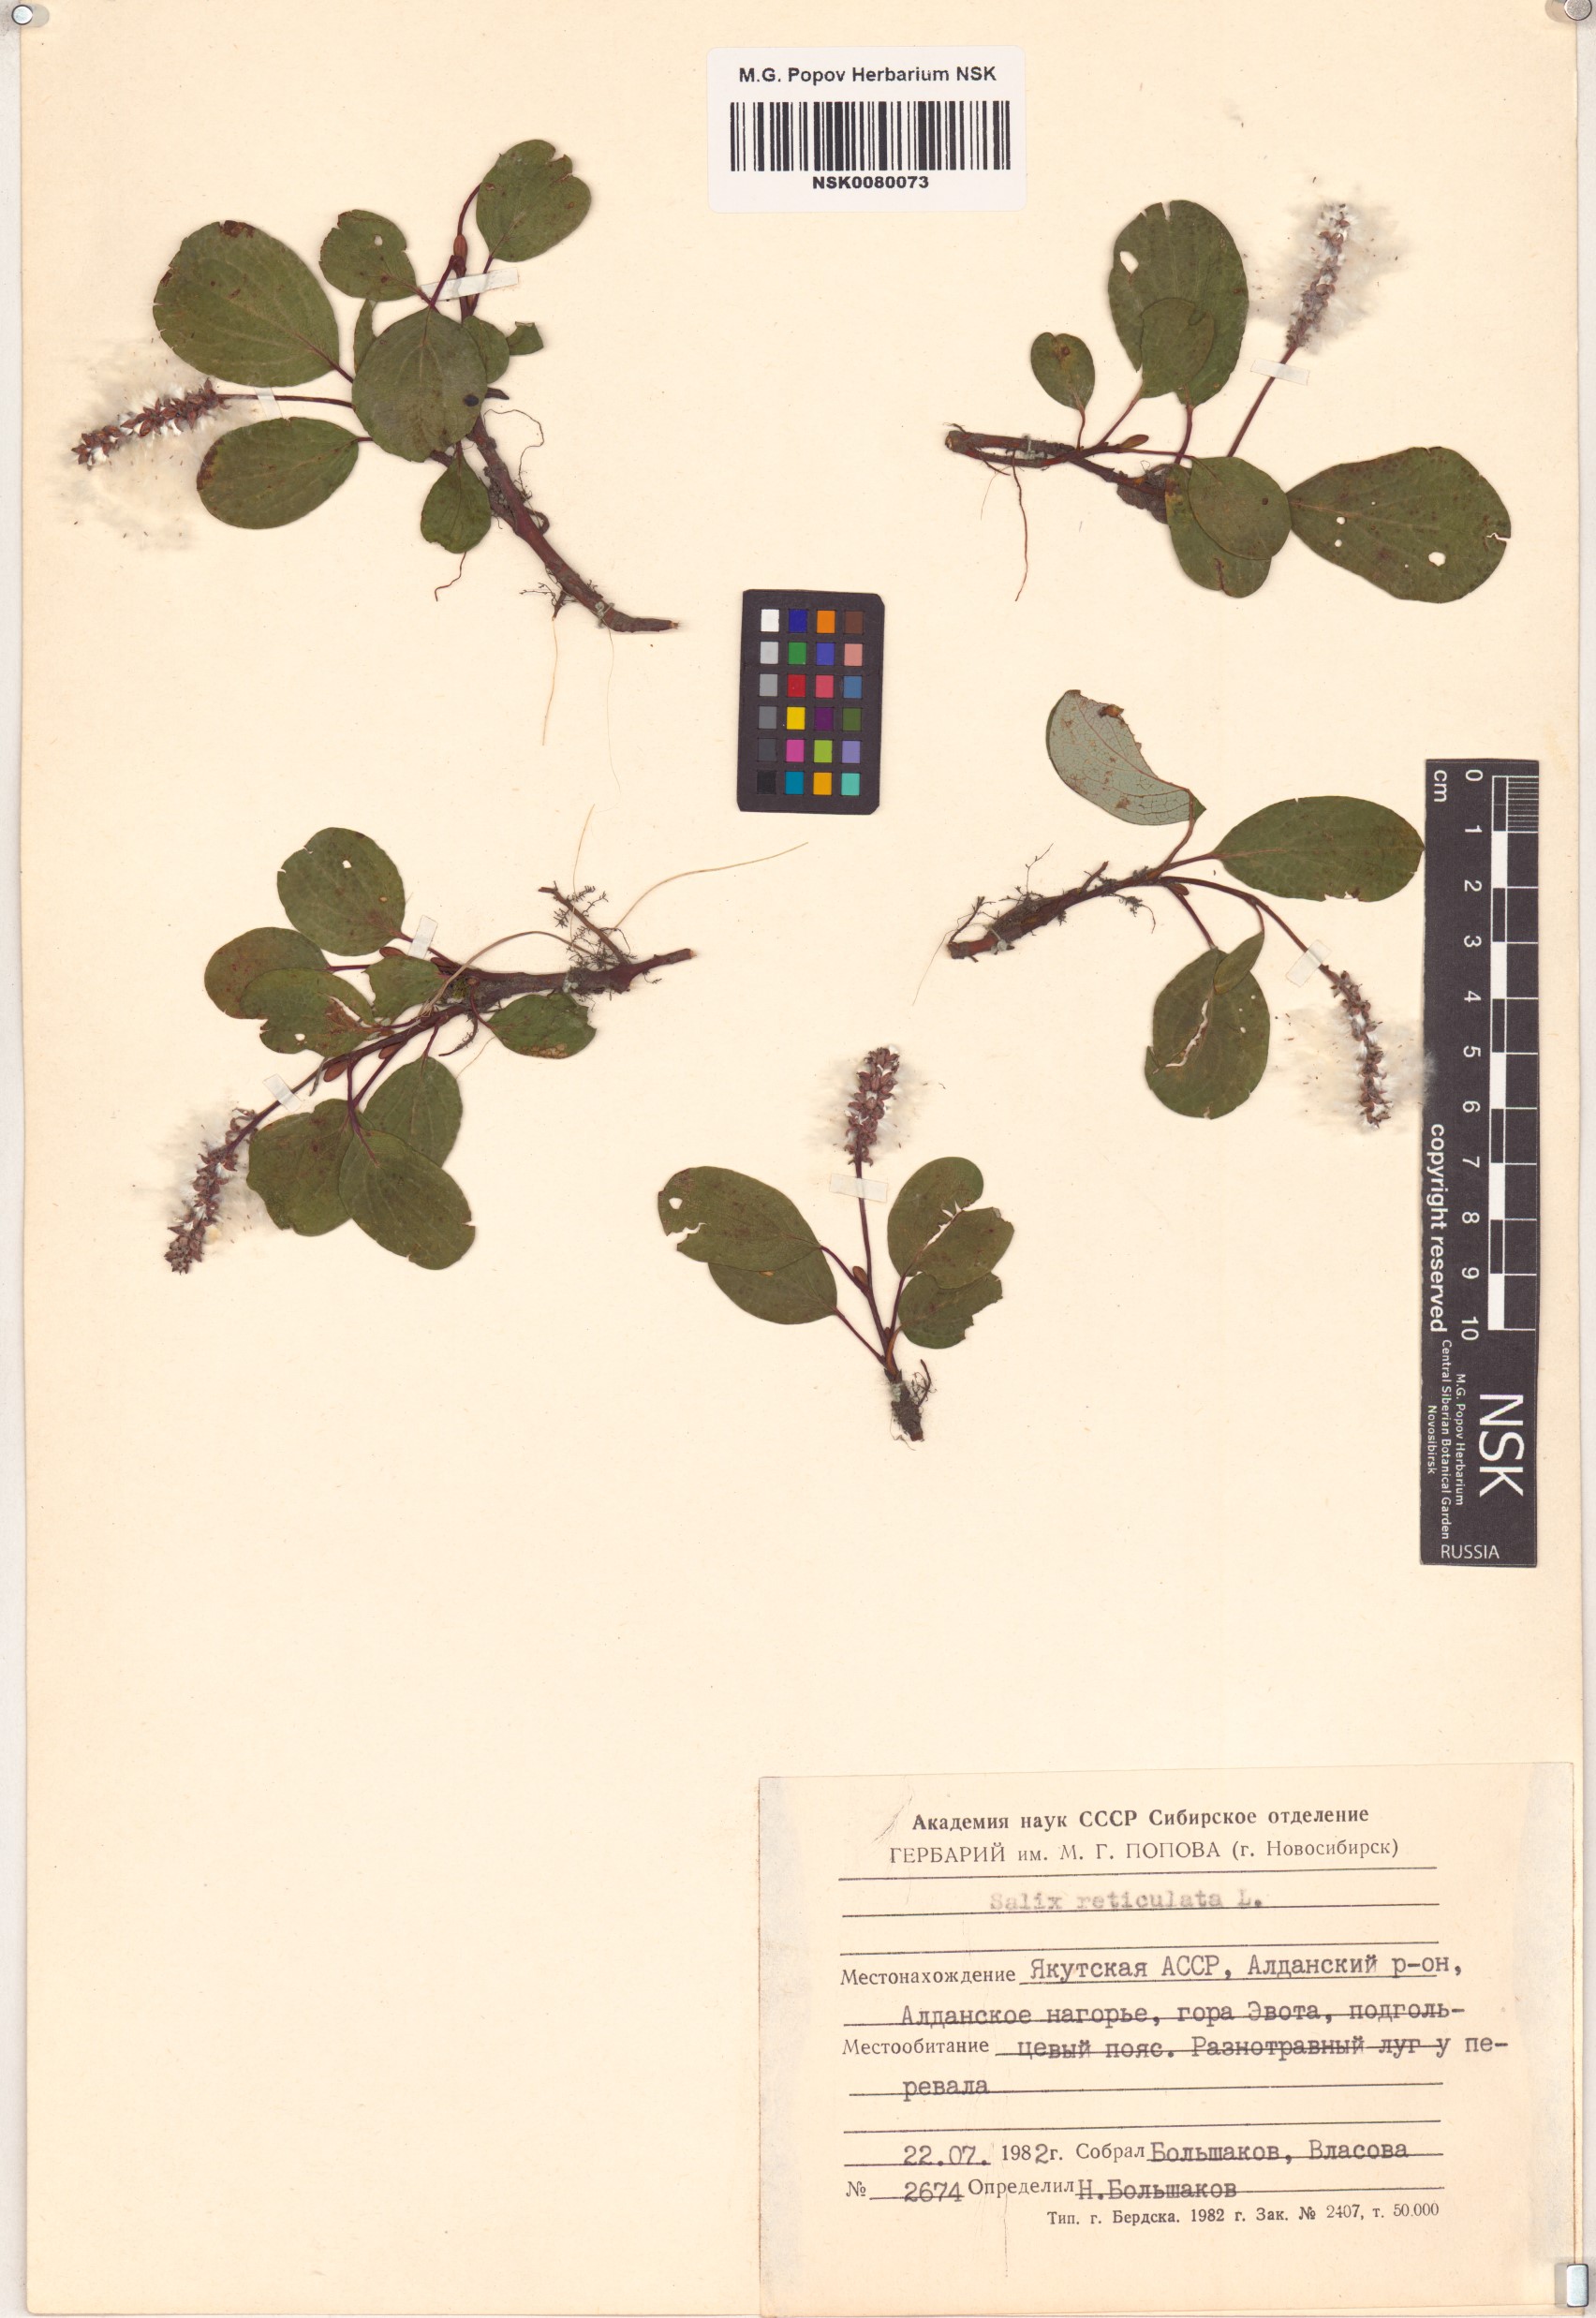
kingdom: Plantae
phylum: Tracheophyta
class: Magnoliopsida
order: Malpighiales
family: Salicaceae
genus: Salix
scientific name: Salix reticulata
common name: Net-leaved willow
